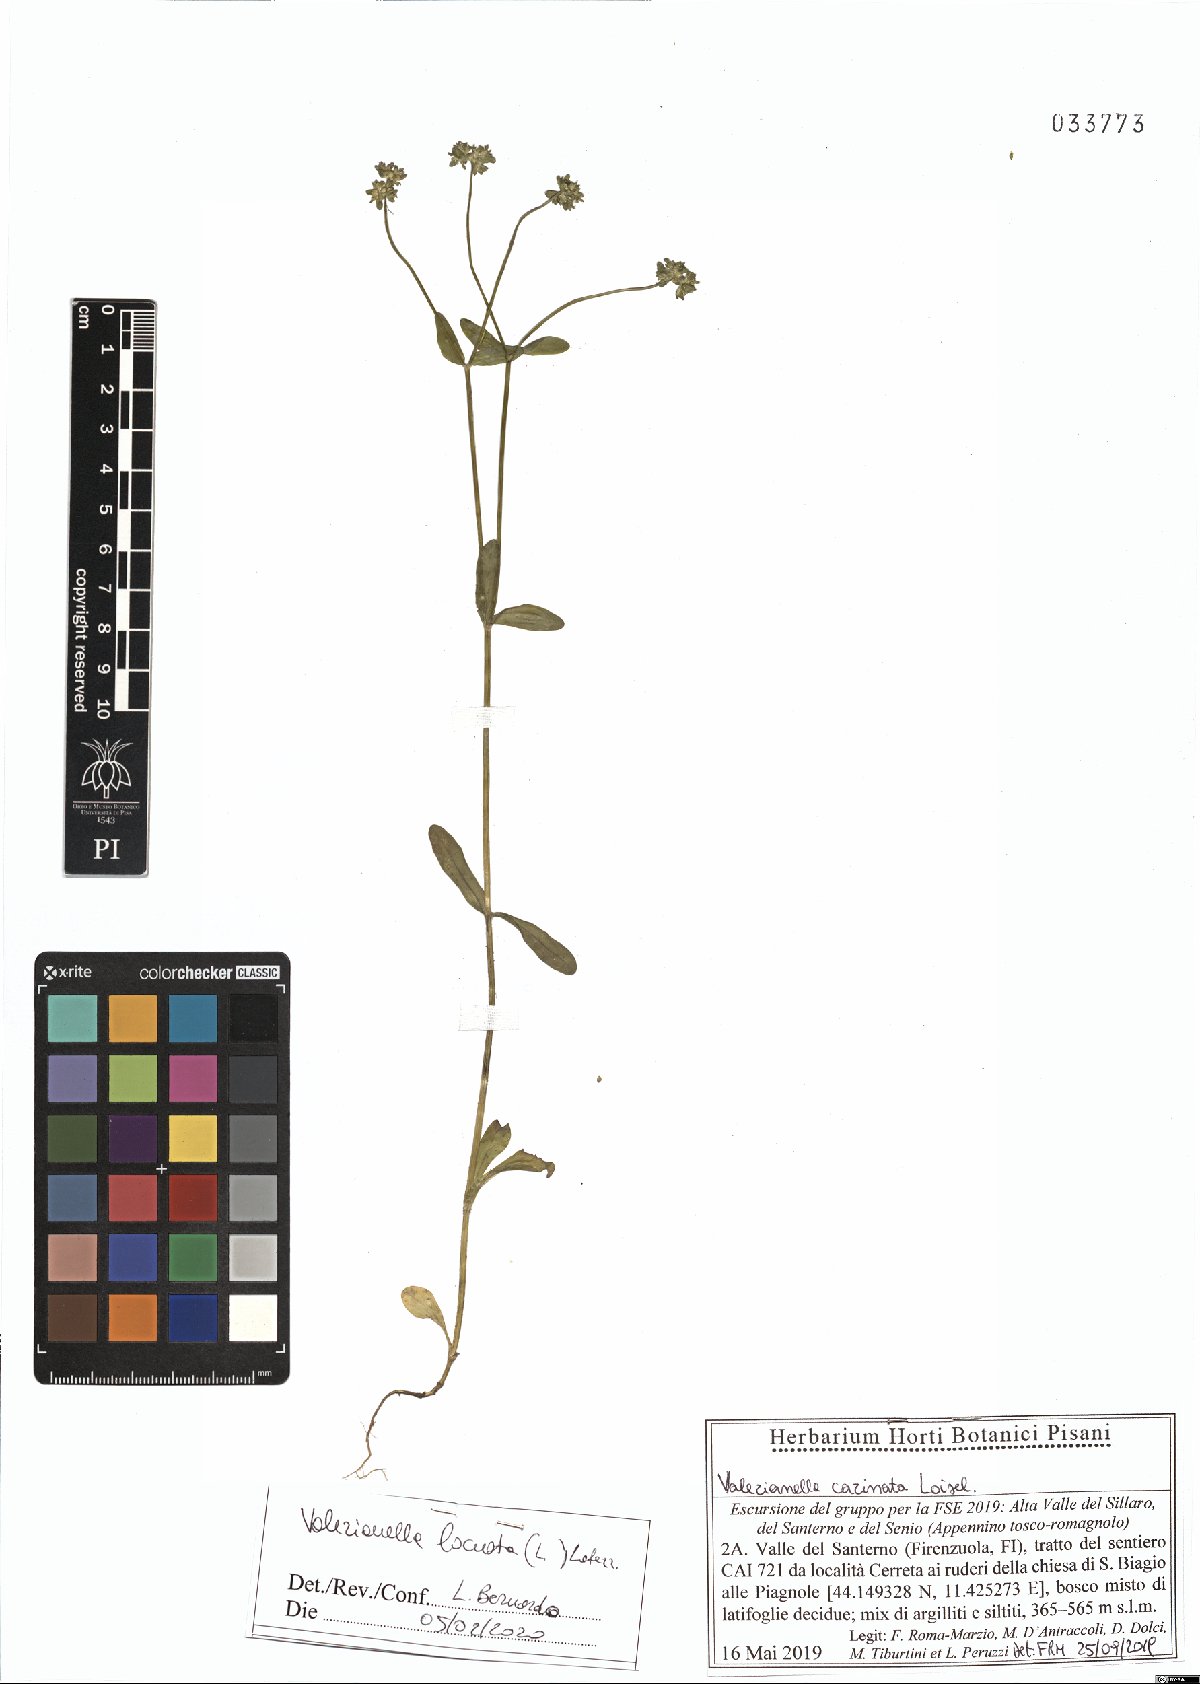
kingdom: Plantae
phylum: Tracheophyta
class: Magnoliopsida
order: Dipsacales
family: Caprifoliaceae
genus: Valerianella
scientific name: Valerianella locusta
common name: Common cornsalad
